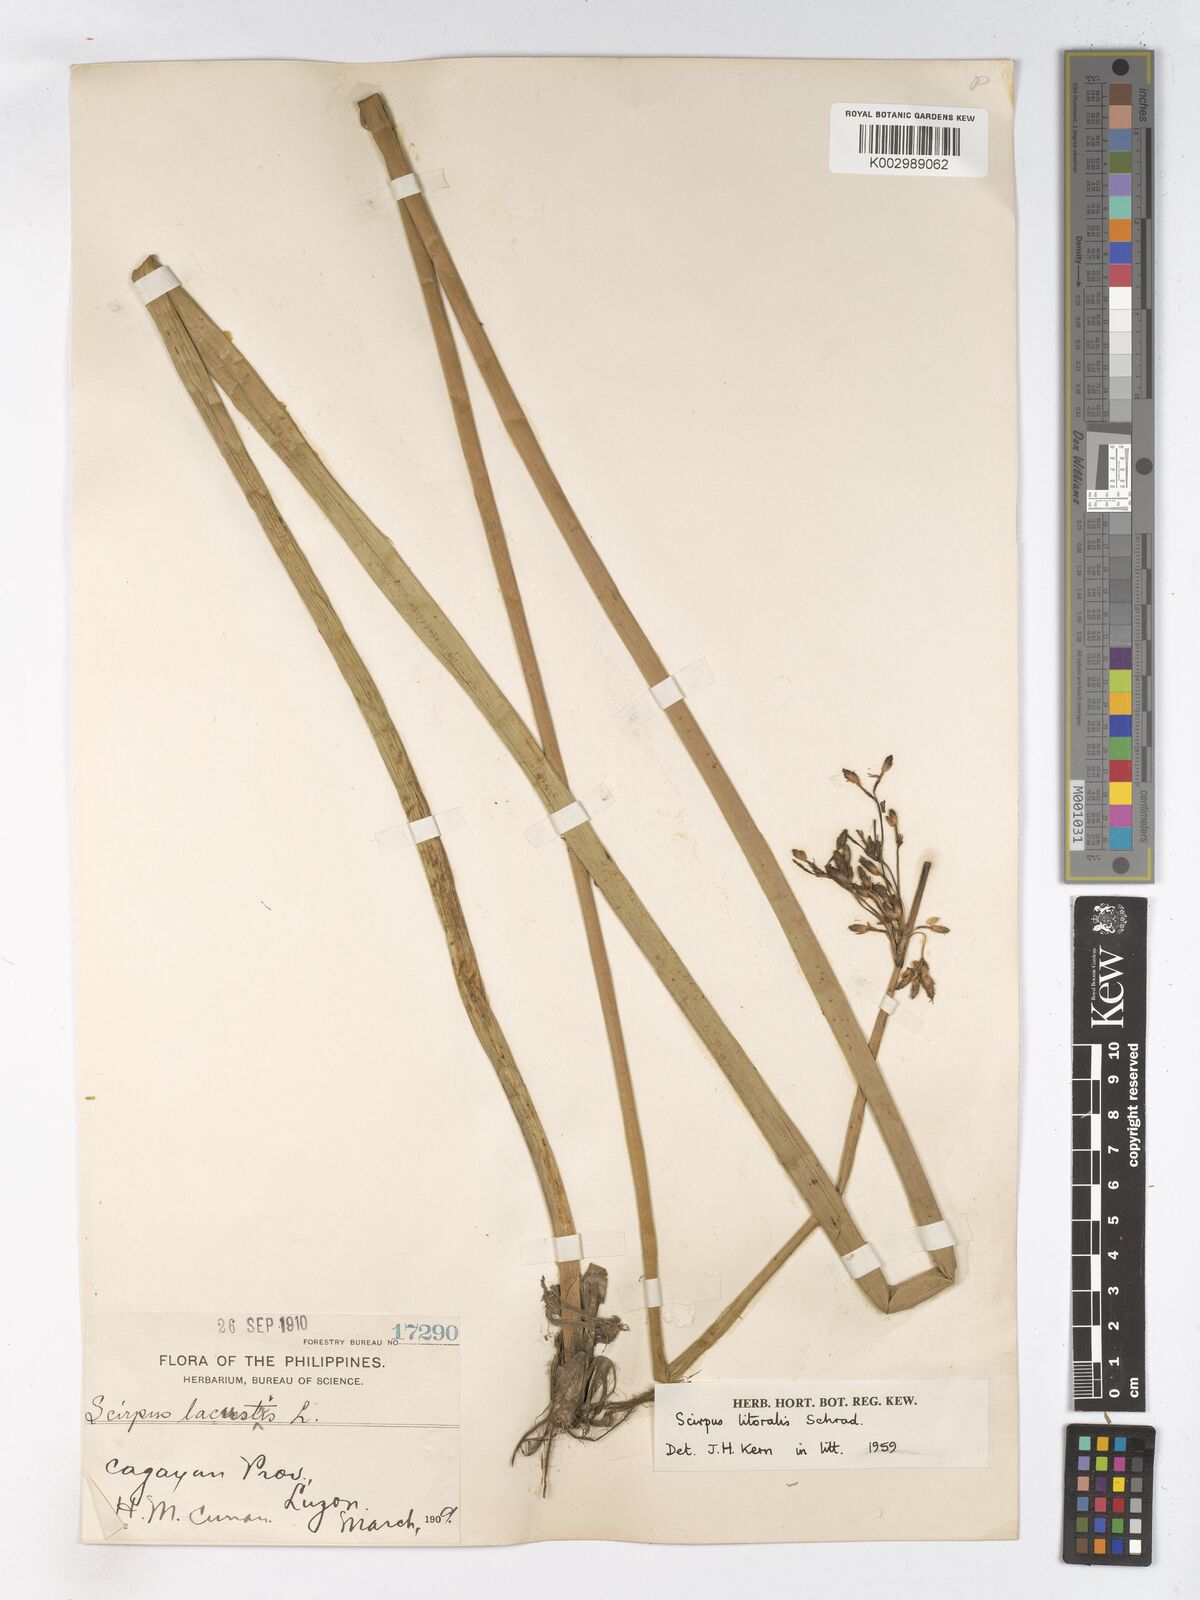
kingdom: Plantae
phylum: Tracheophyta
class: Liliopsida
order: Poales
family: Cyperaceae
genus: Schoenoplectus
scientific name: Schoenoplectus litoralis
